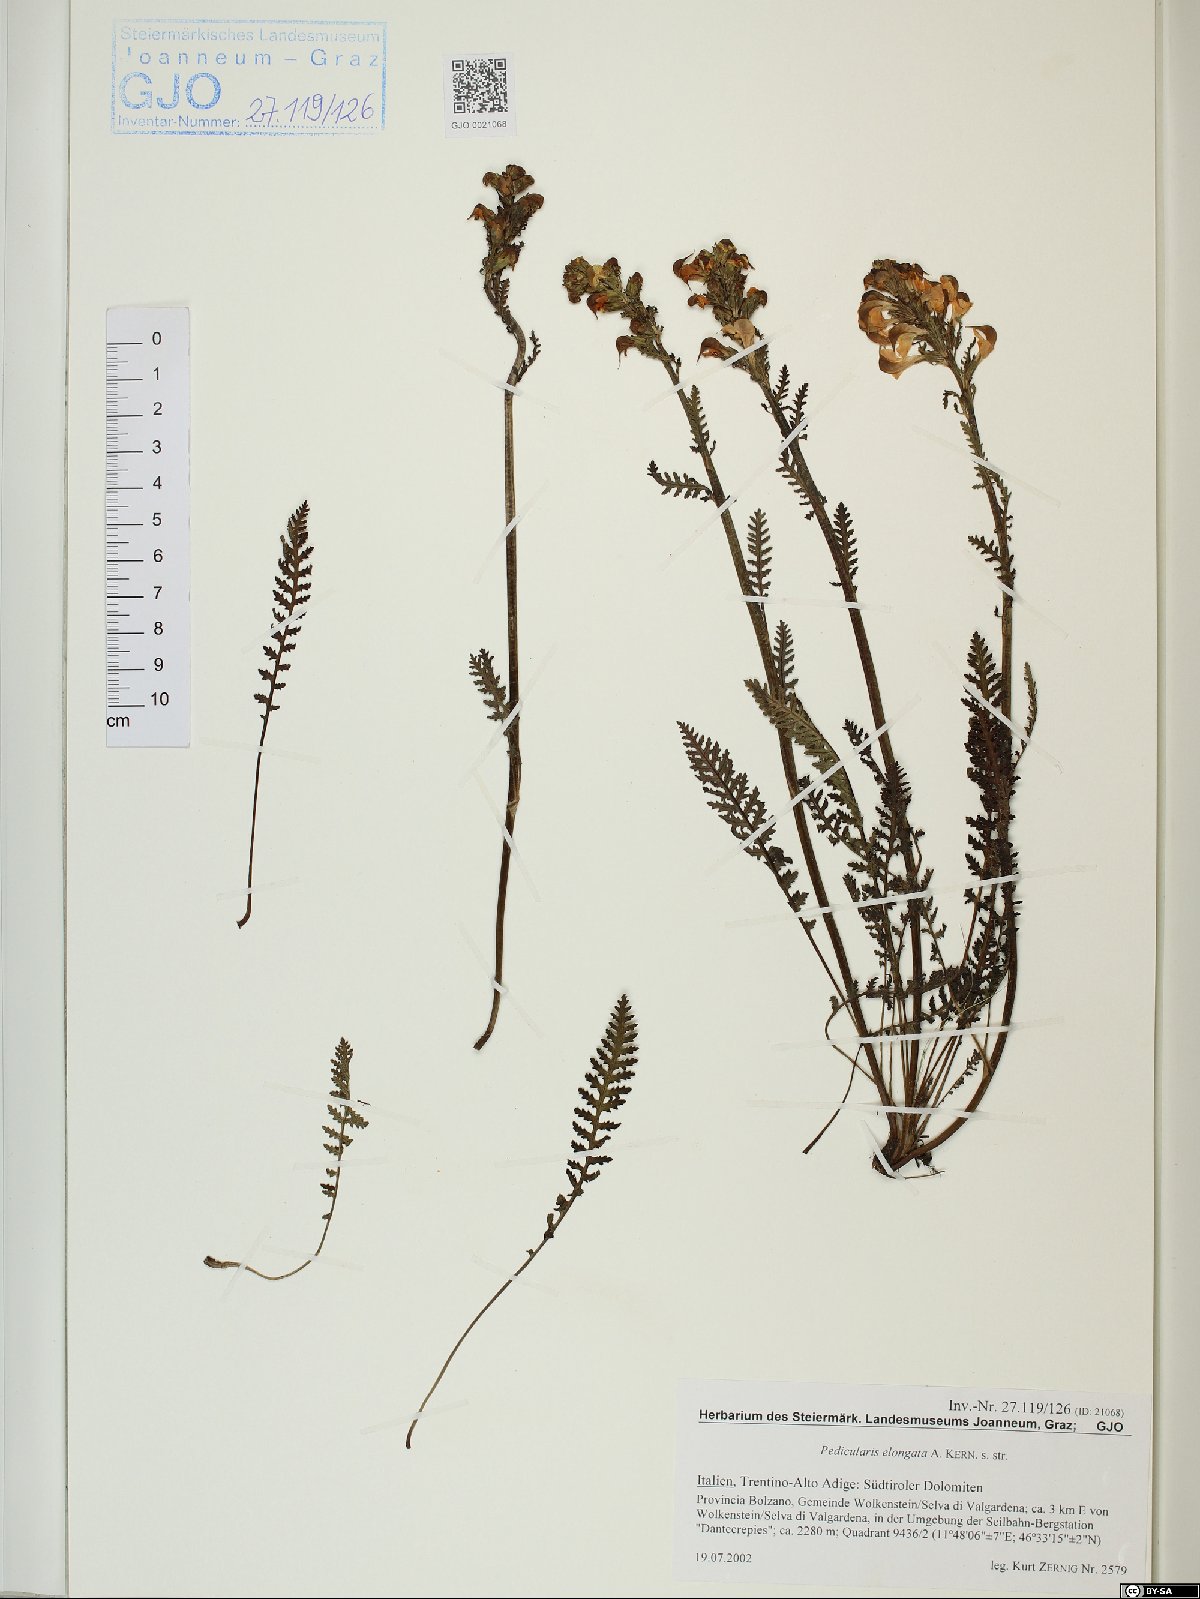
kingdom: Plantae
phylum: Tracheophyta
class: Magnoliopsida
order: Lamiales
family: Orobanchaceae
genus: Pedicularis
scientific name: Pedicularis elongata
